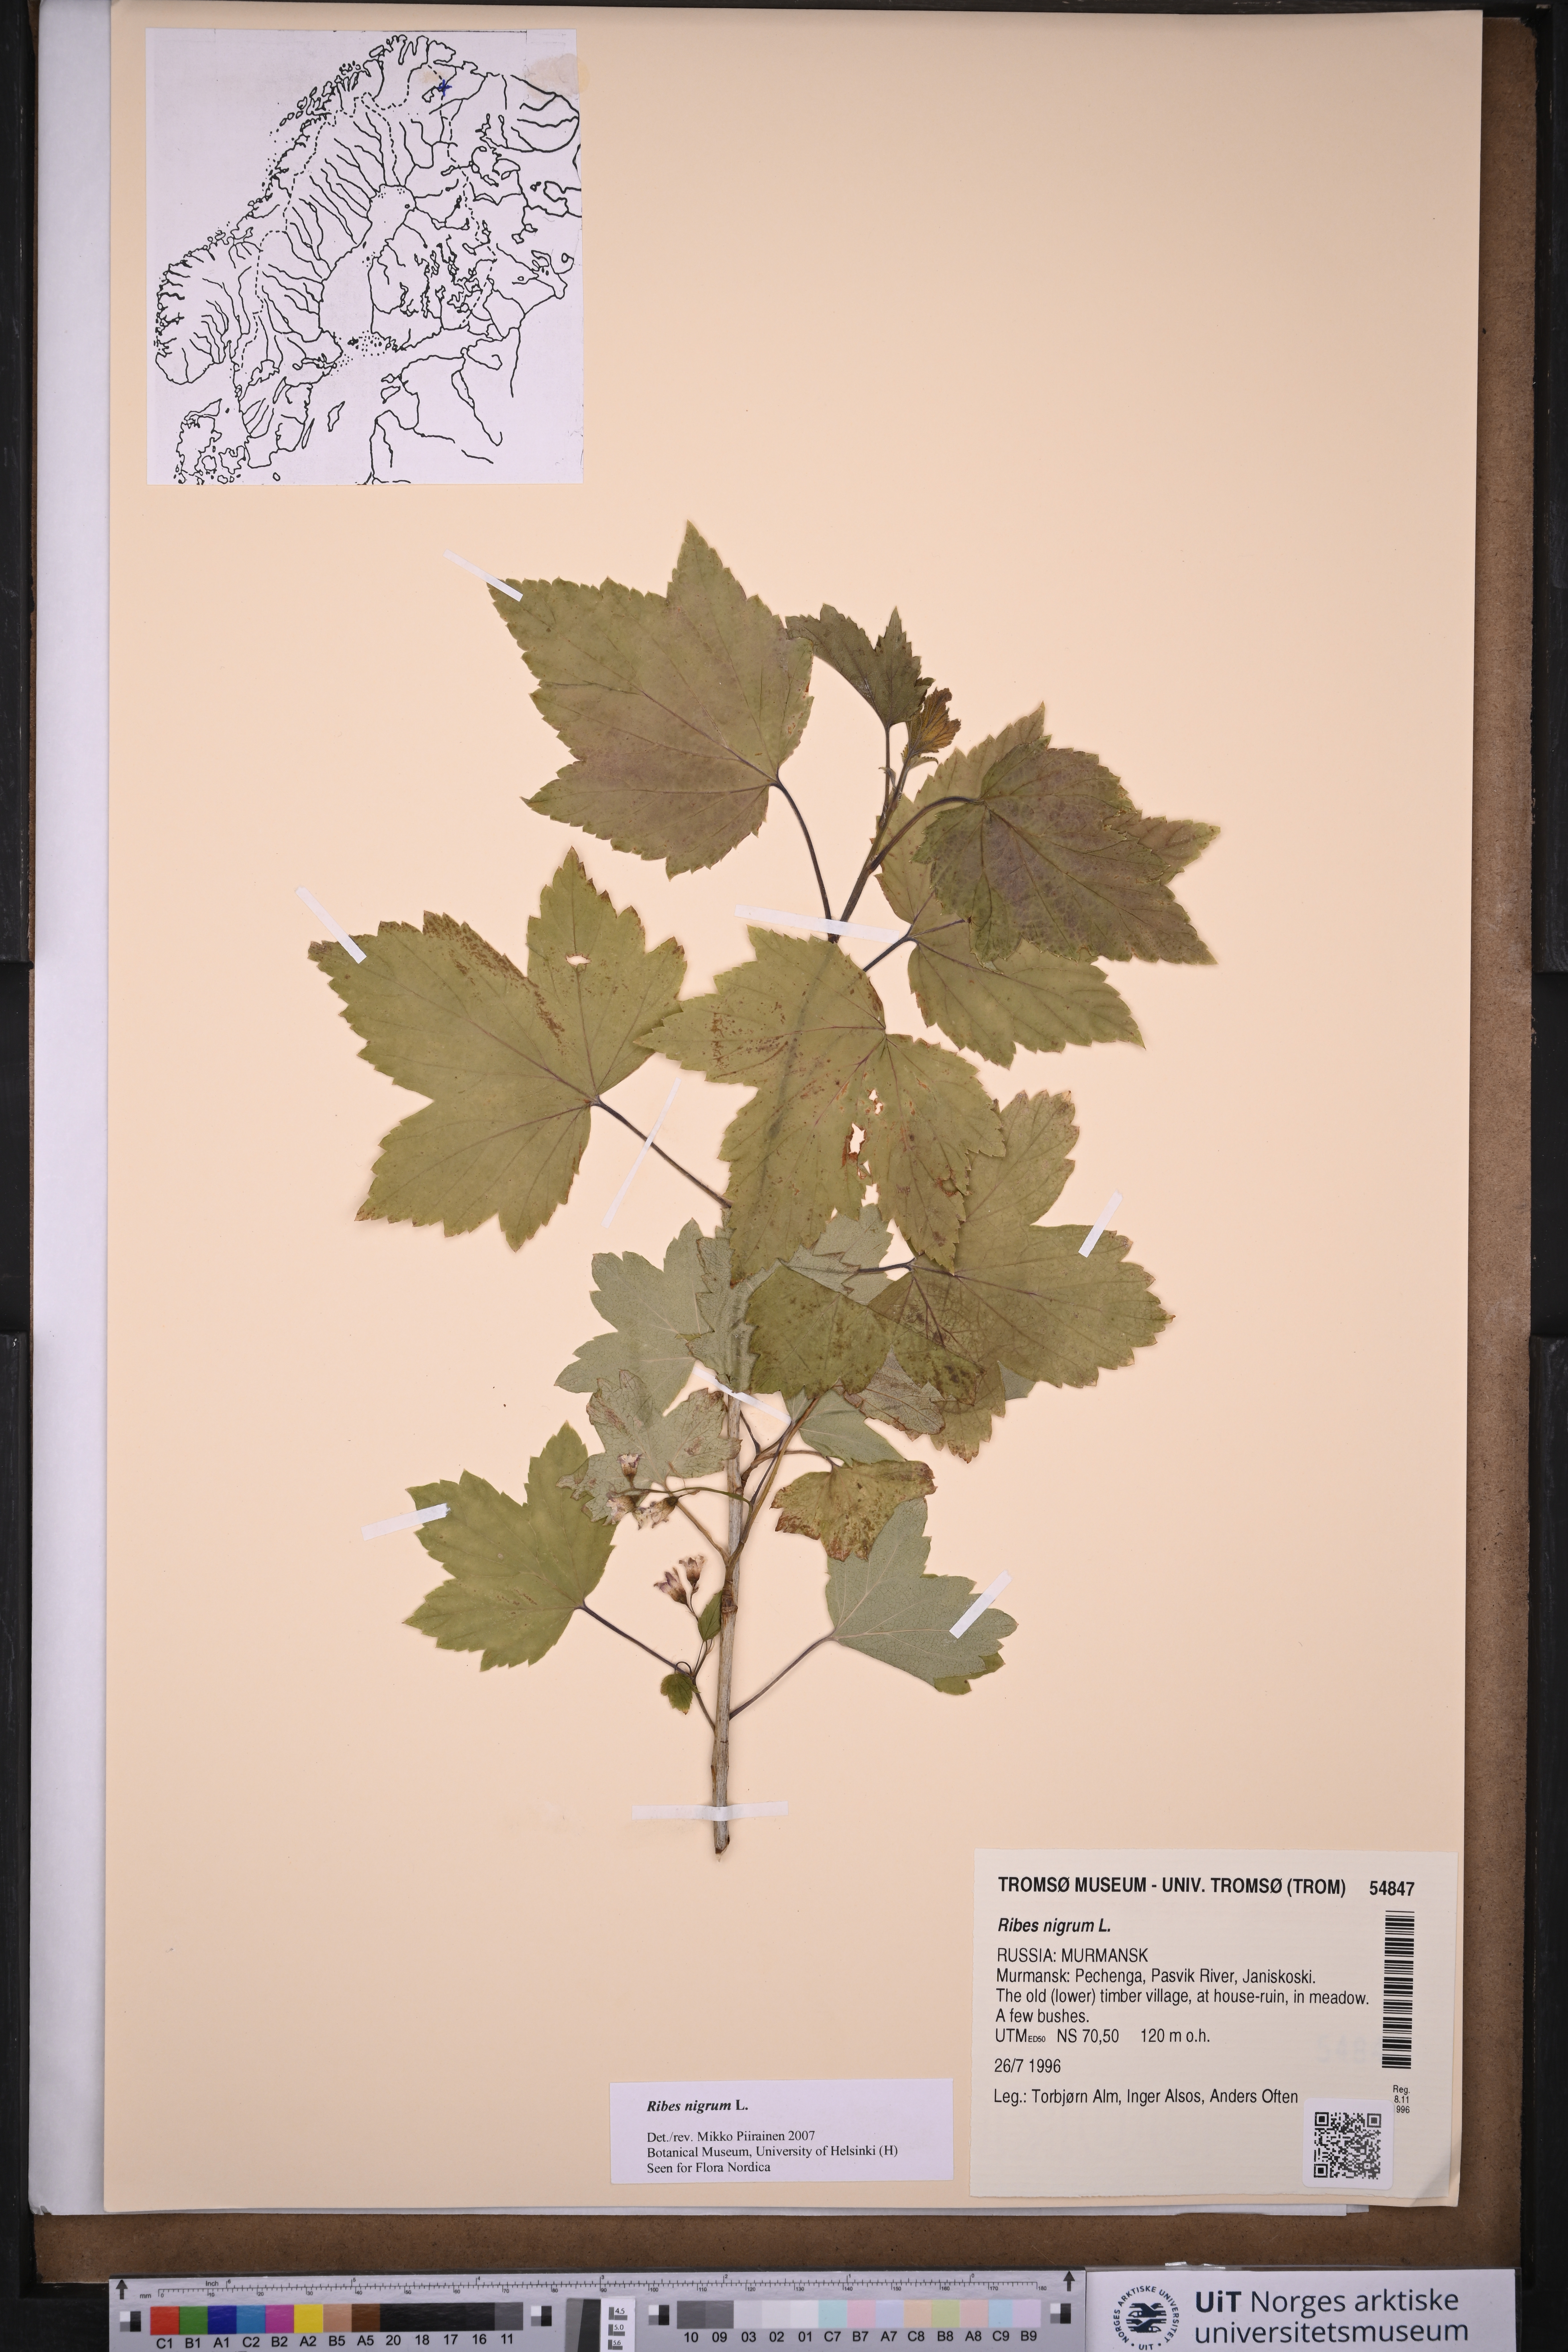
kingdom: Plantae
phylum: Tracheophyta
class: Magnoliopsida
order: Saxifragales
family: Grossulariaceae
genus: Ribes
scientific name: Ribes nigrum
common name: Black currant
